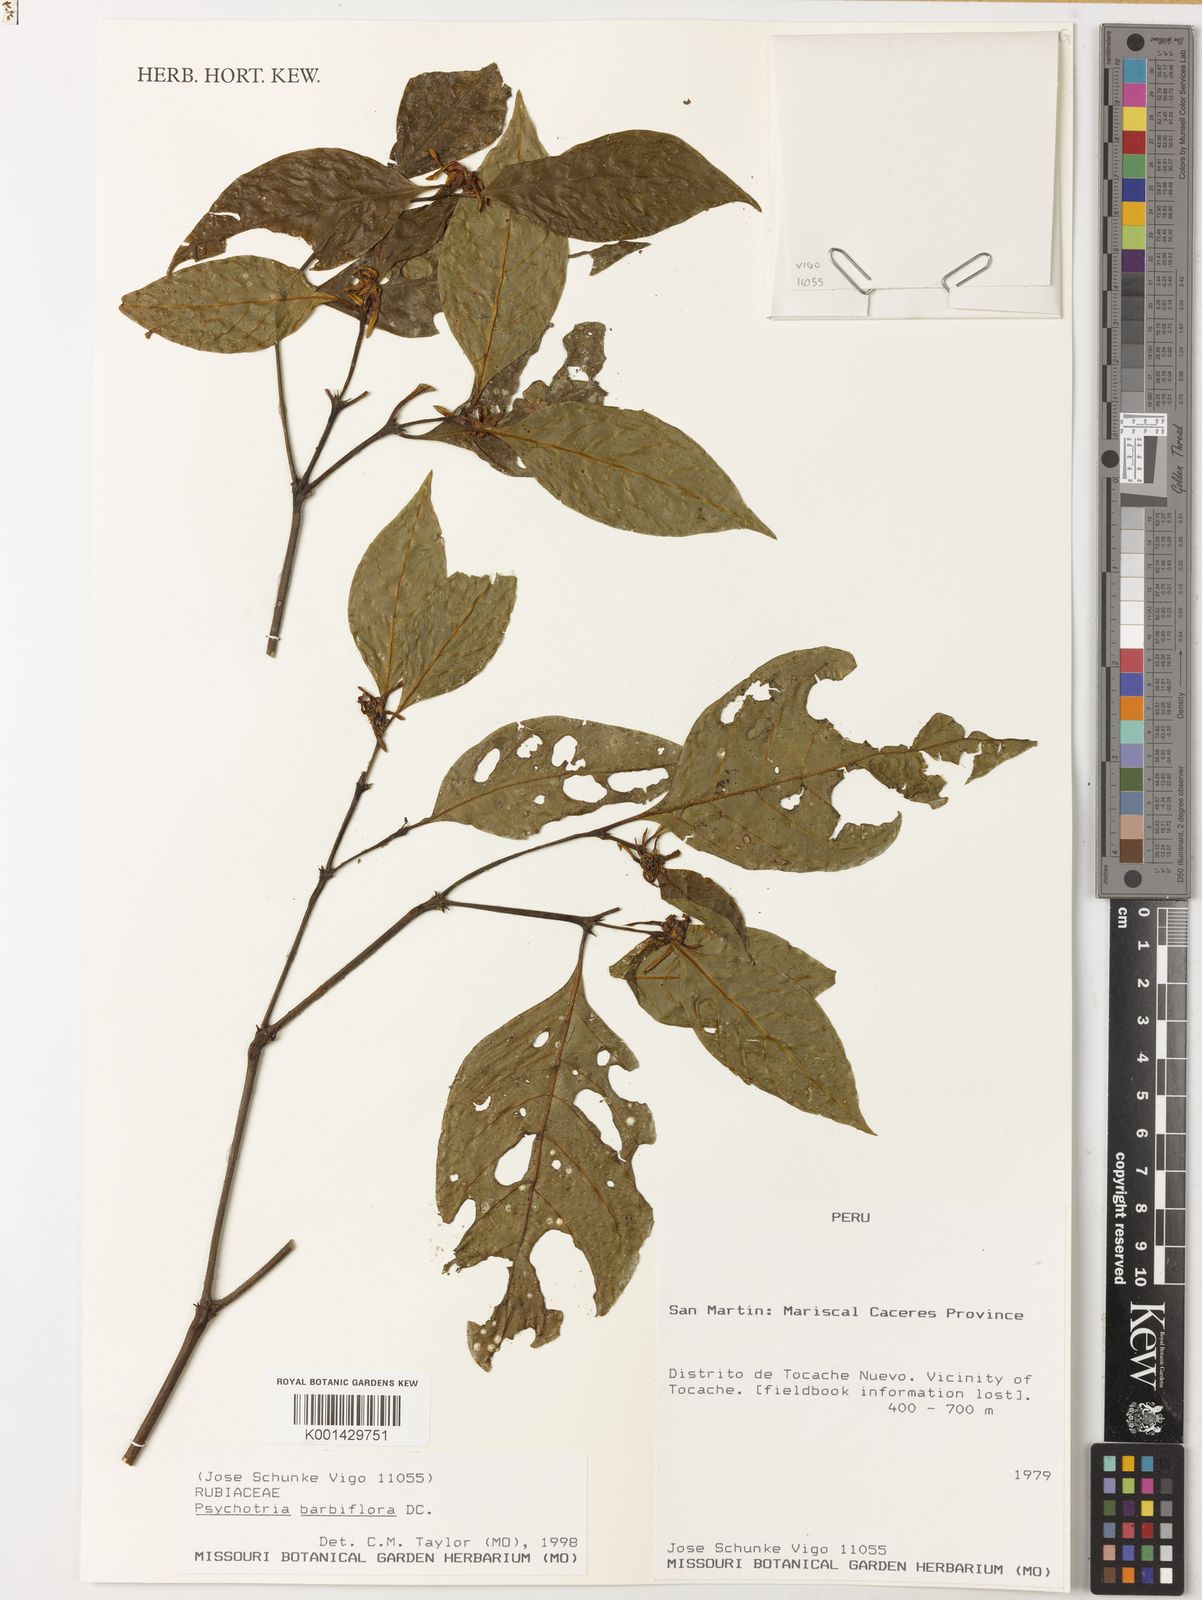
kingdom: Plantae
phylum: Tracheophyta
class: Magnoliopsida
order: Gentianales
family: Rubiaceae
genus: Palicourea
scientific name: Palicourea hoffmannseggiana
